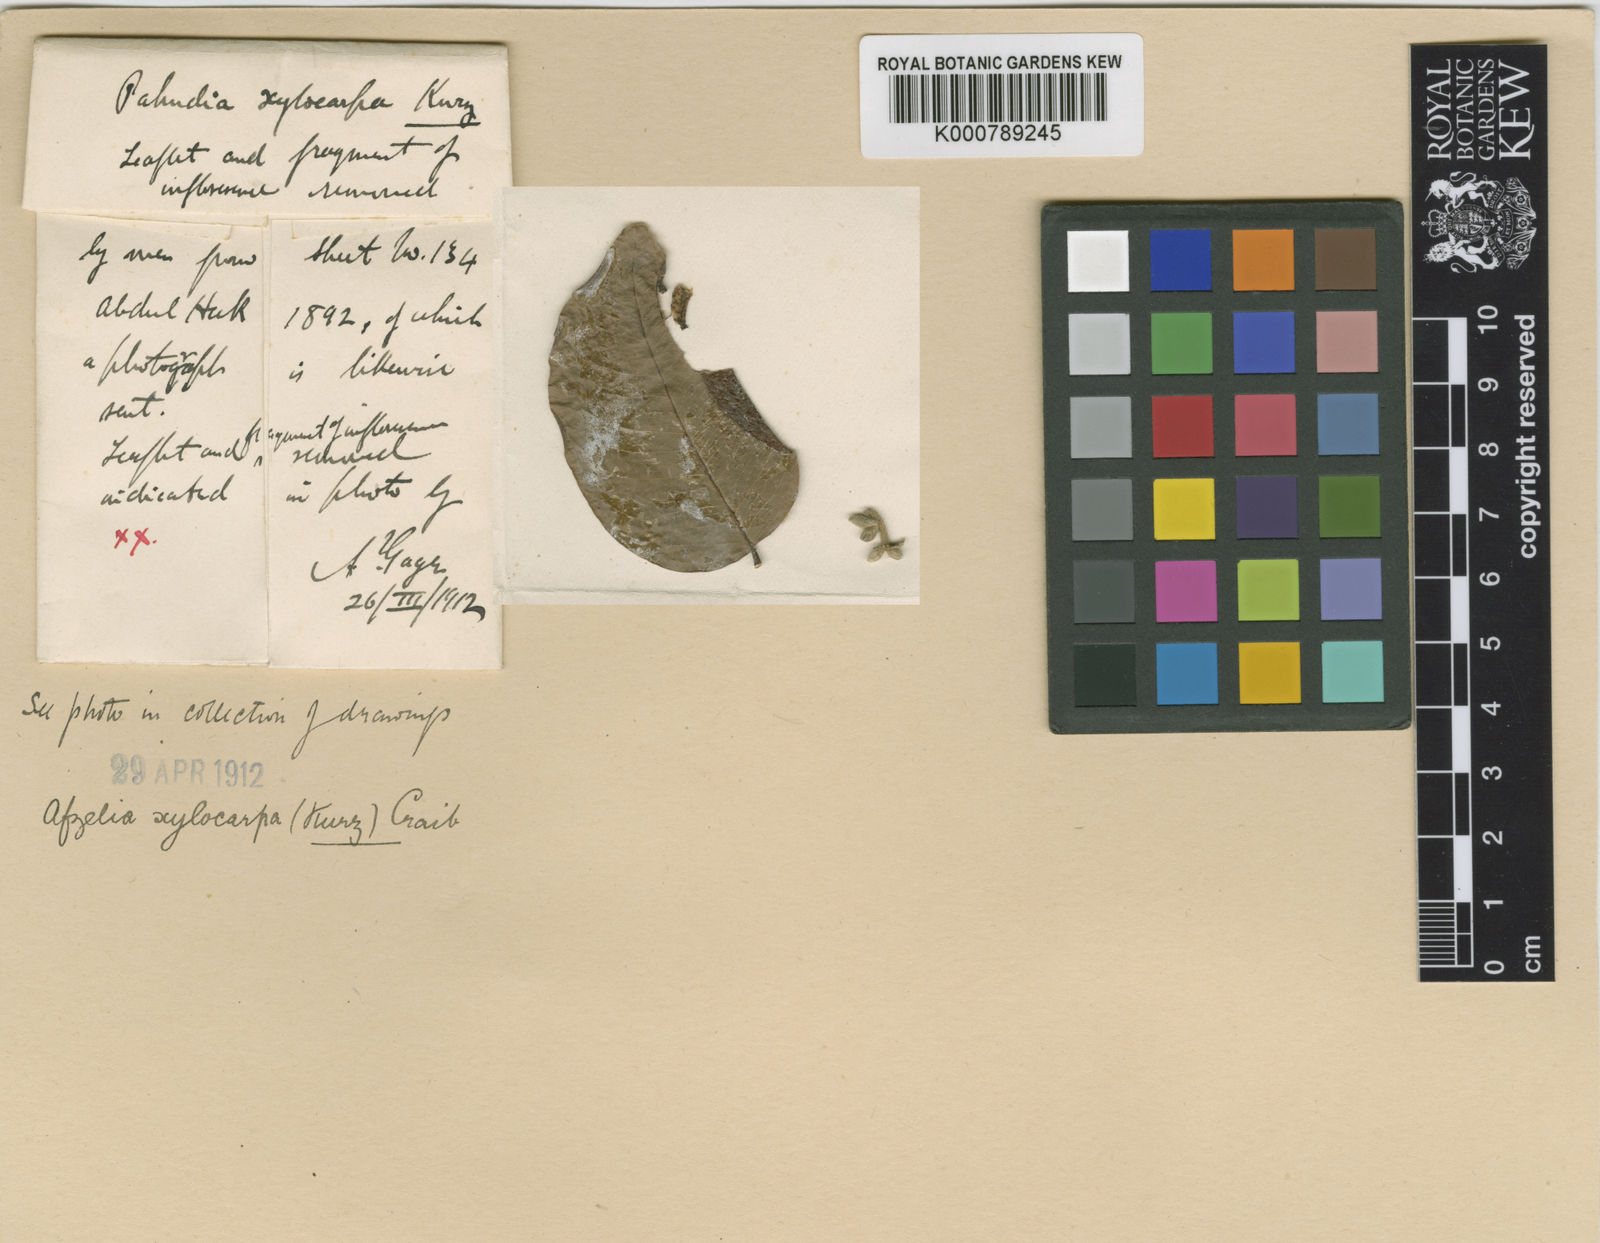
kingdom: Plantae
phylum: Tracheophyta
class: Magnoliopsida
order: Fabales
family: Fabaceae
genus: Afzelia
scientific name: Afzelia xylocarpa
